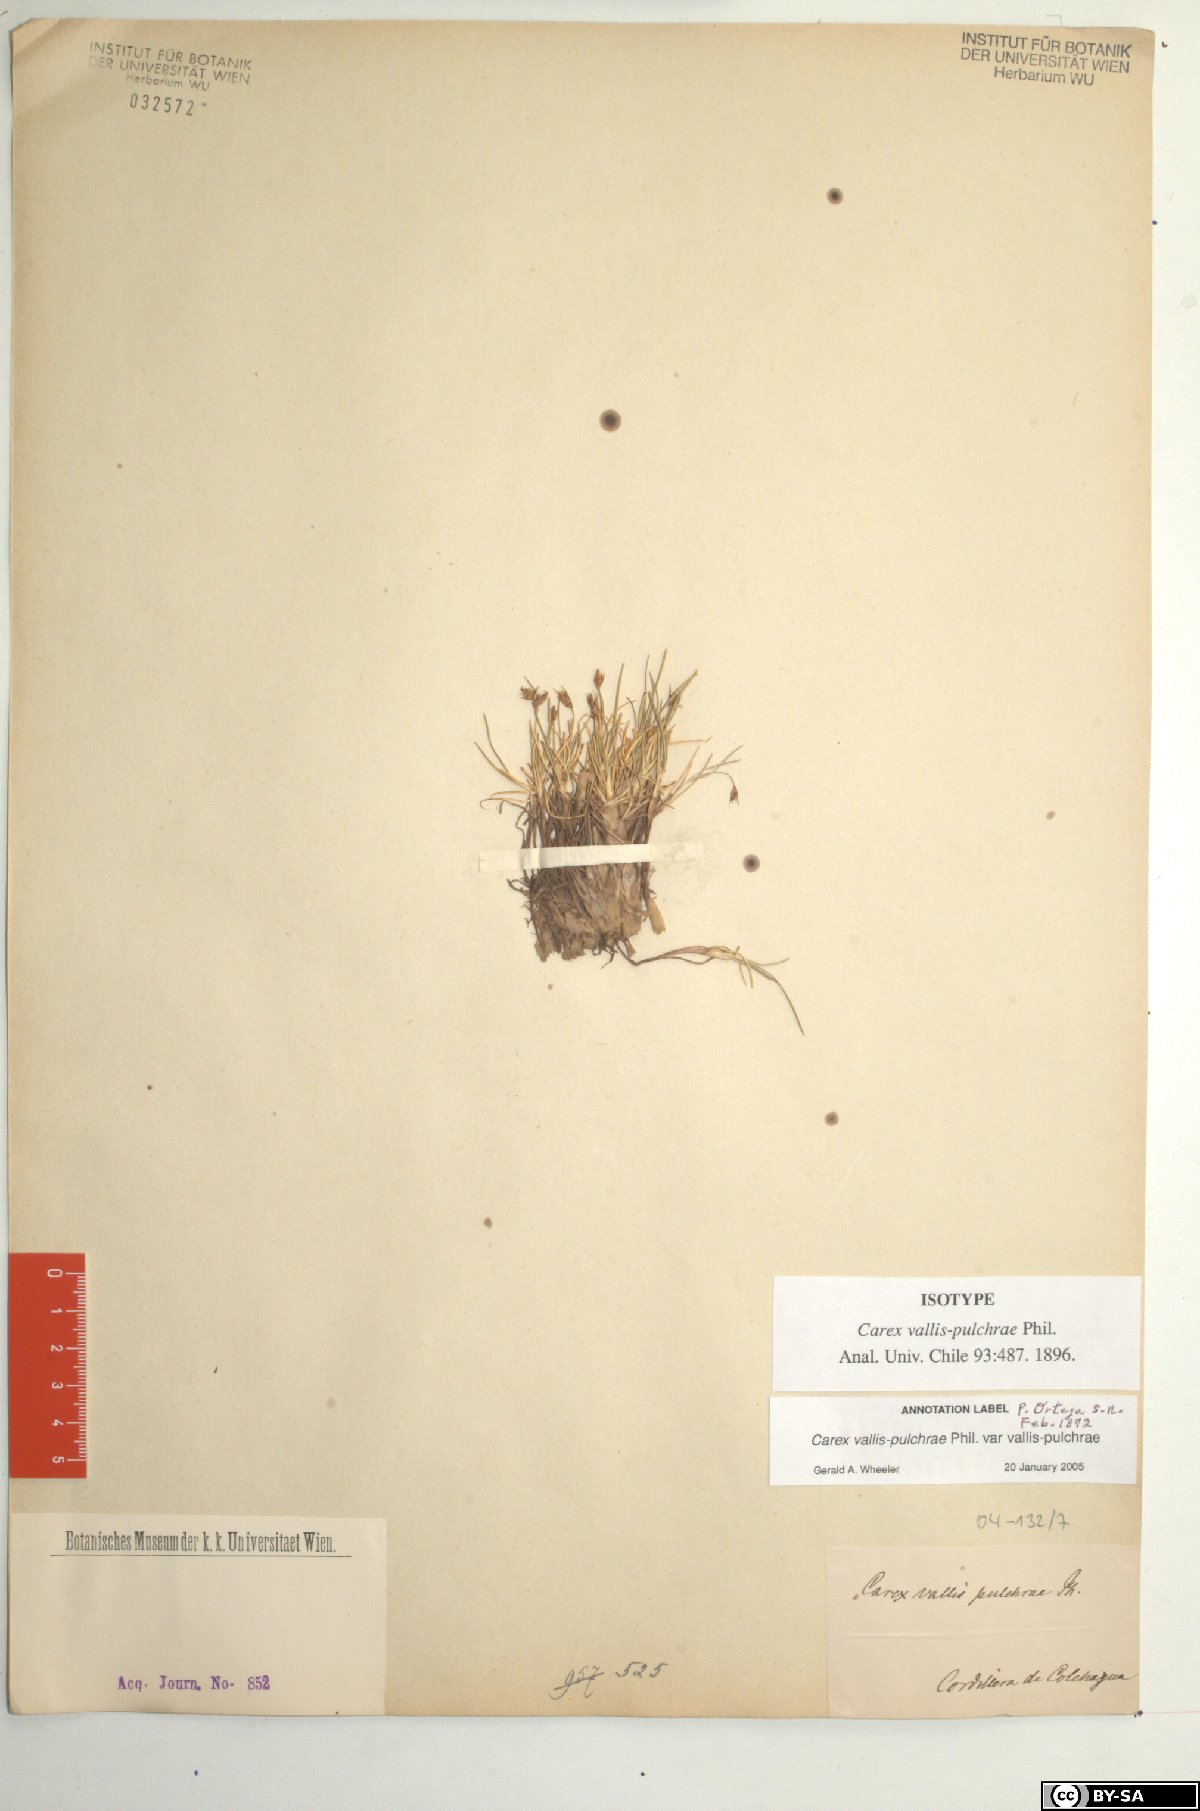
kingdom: Plantae
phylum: Tracheophyta
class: Liliopsida
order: Poales
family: Cyperaceae
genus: Carex
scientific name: Carex vallis-pulchrae
